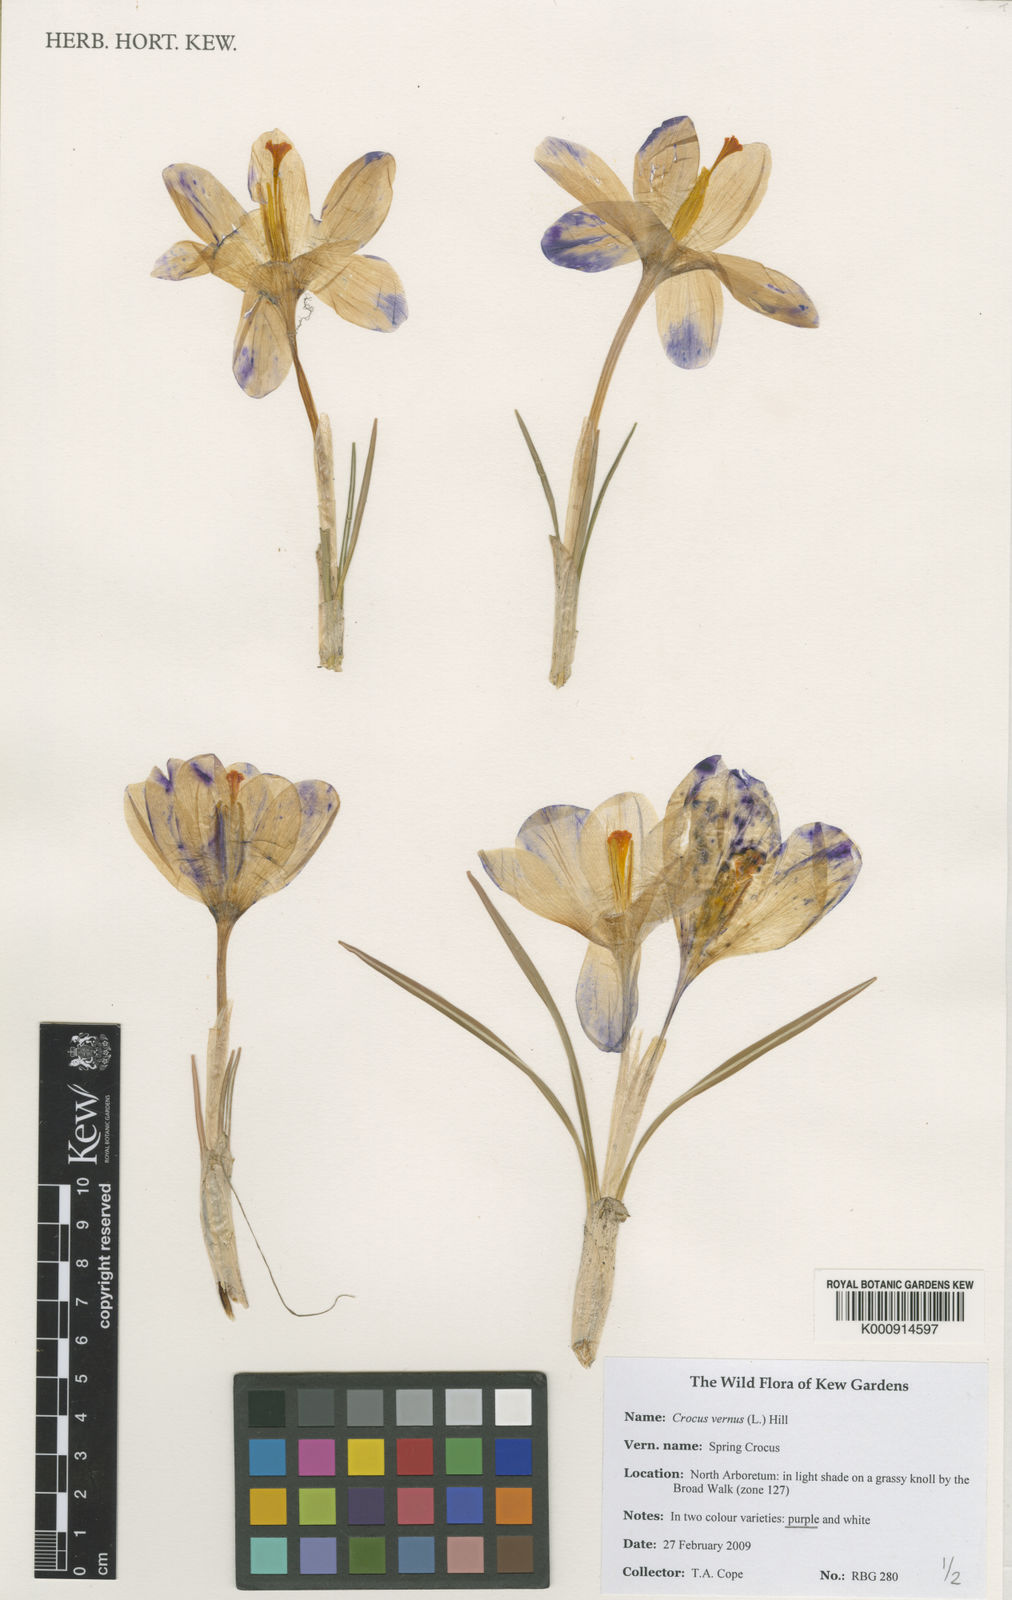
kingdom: Plantae
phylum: Tracheophyta
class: Liliopsida
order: Asparagales
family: Iridaceae
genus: Crocus
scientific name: Crocus vernus
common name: Spring crocus
